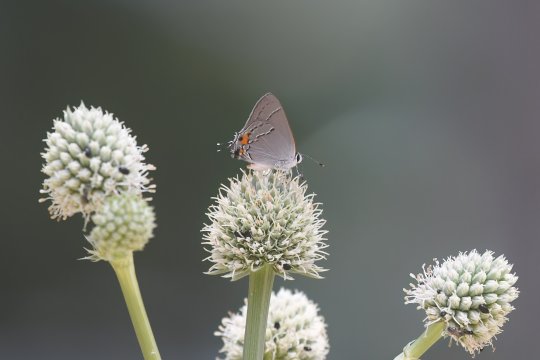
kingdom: Animalia
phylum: Arthropoda
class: Insecta
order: Lepidoptera
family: Lycaenidae
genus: Strymon
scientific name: Strymon melinus
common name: Gray Hairstreak
